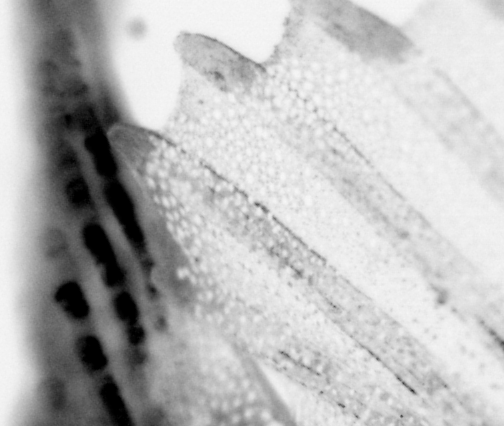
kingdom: Animalia
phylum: Chordata
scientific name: Chordata
